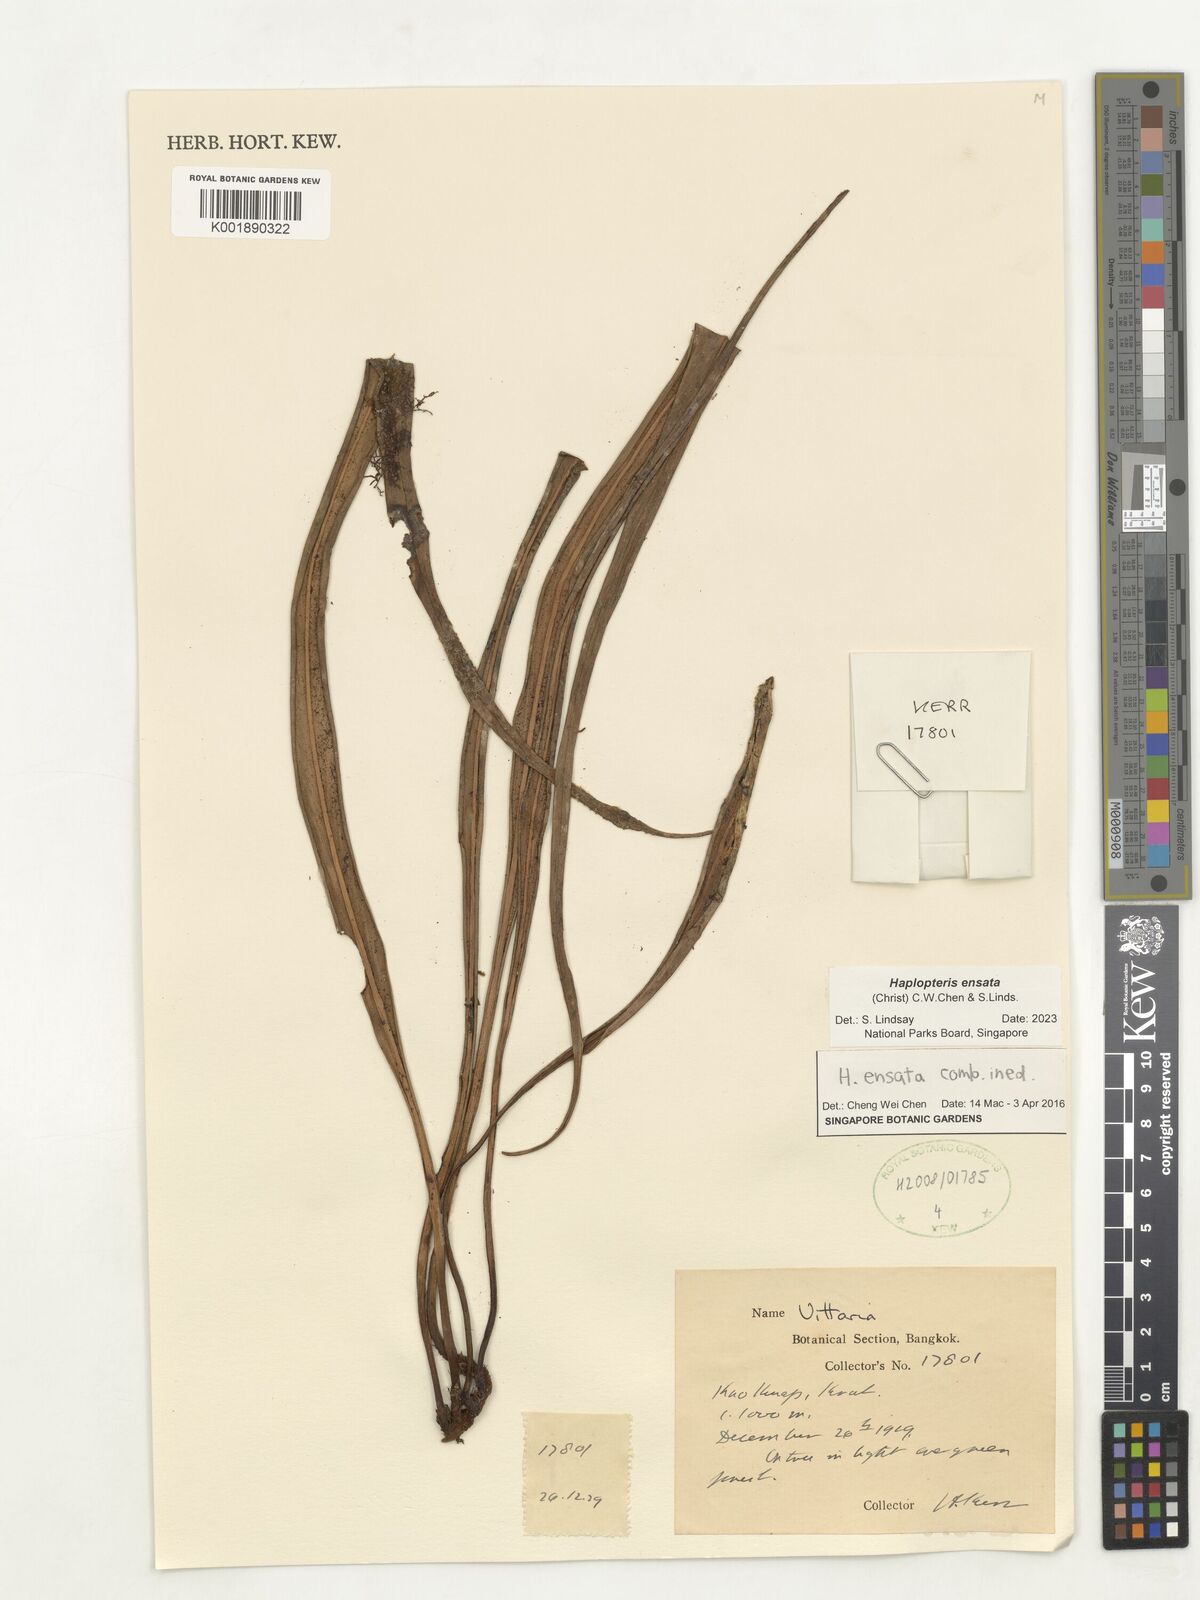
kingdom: Plantae
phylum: Tracheophyta
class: Polypodiopsida
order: Polypodiales
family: Pteridaceae
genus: Haplopteris
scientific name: Haplopteris ensata
